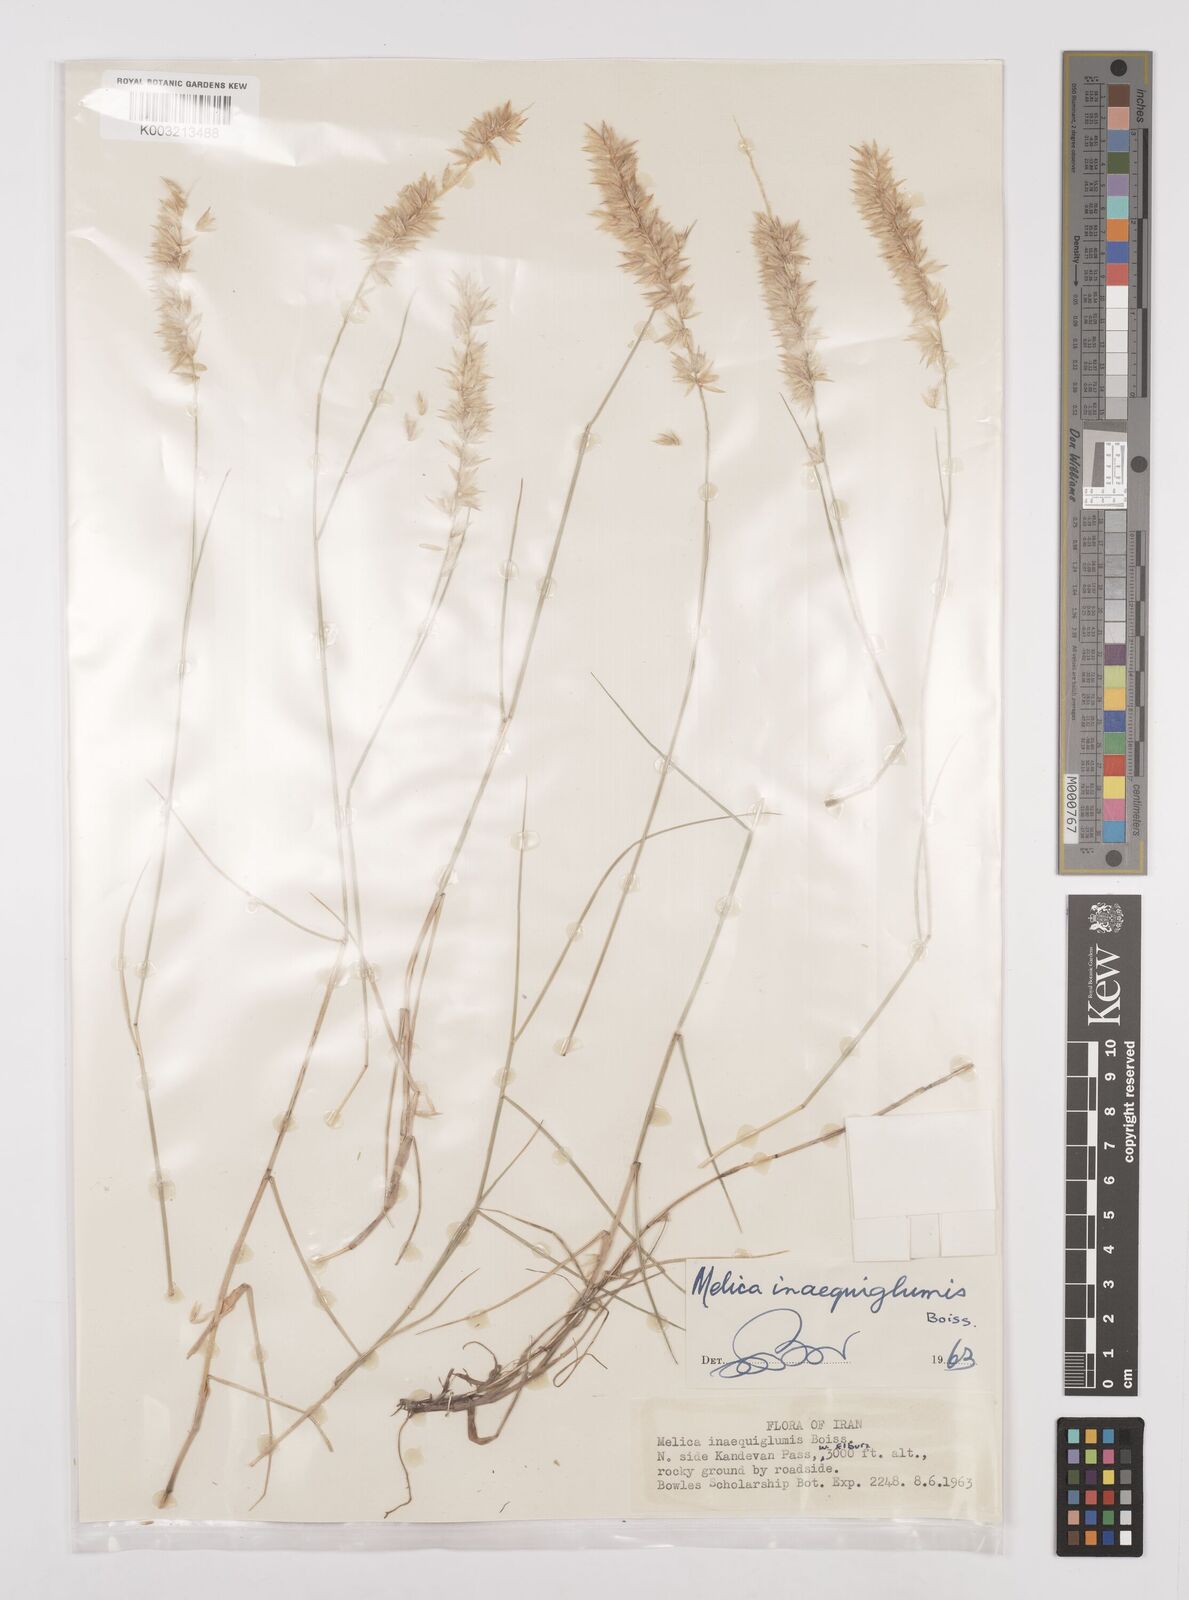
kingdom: Plantae
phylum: Tracheophyta
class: Liliopsida
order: Poales
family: Poaceae
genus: Melica
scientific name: Melica persica
